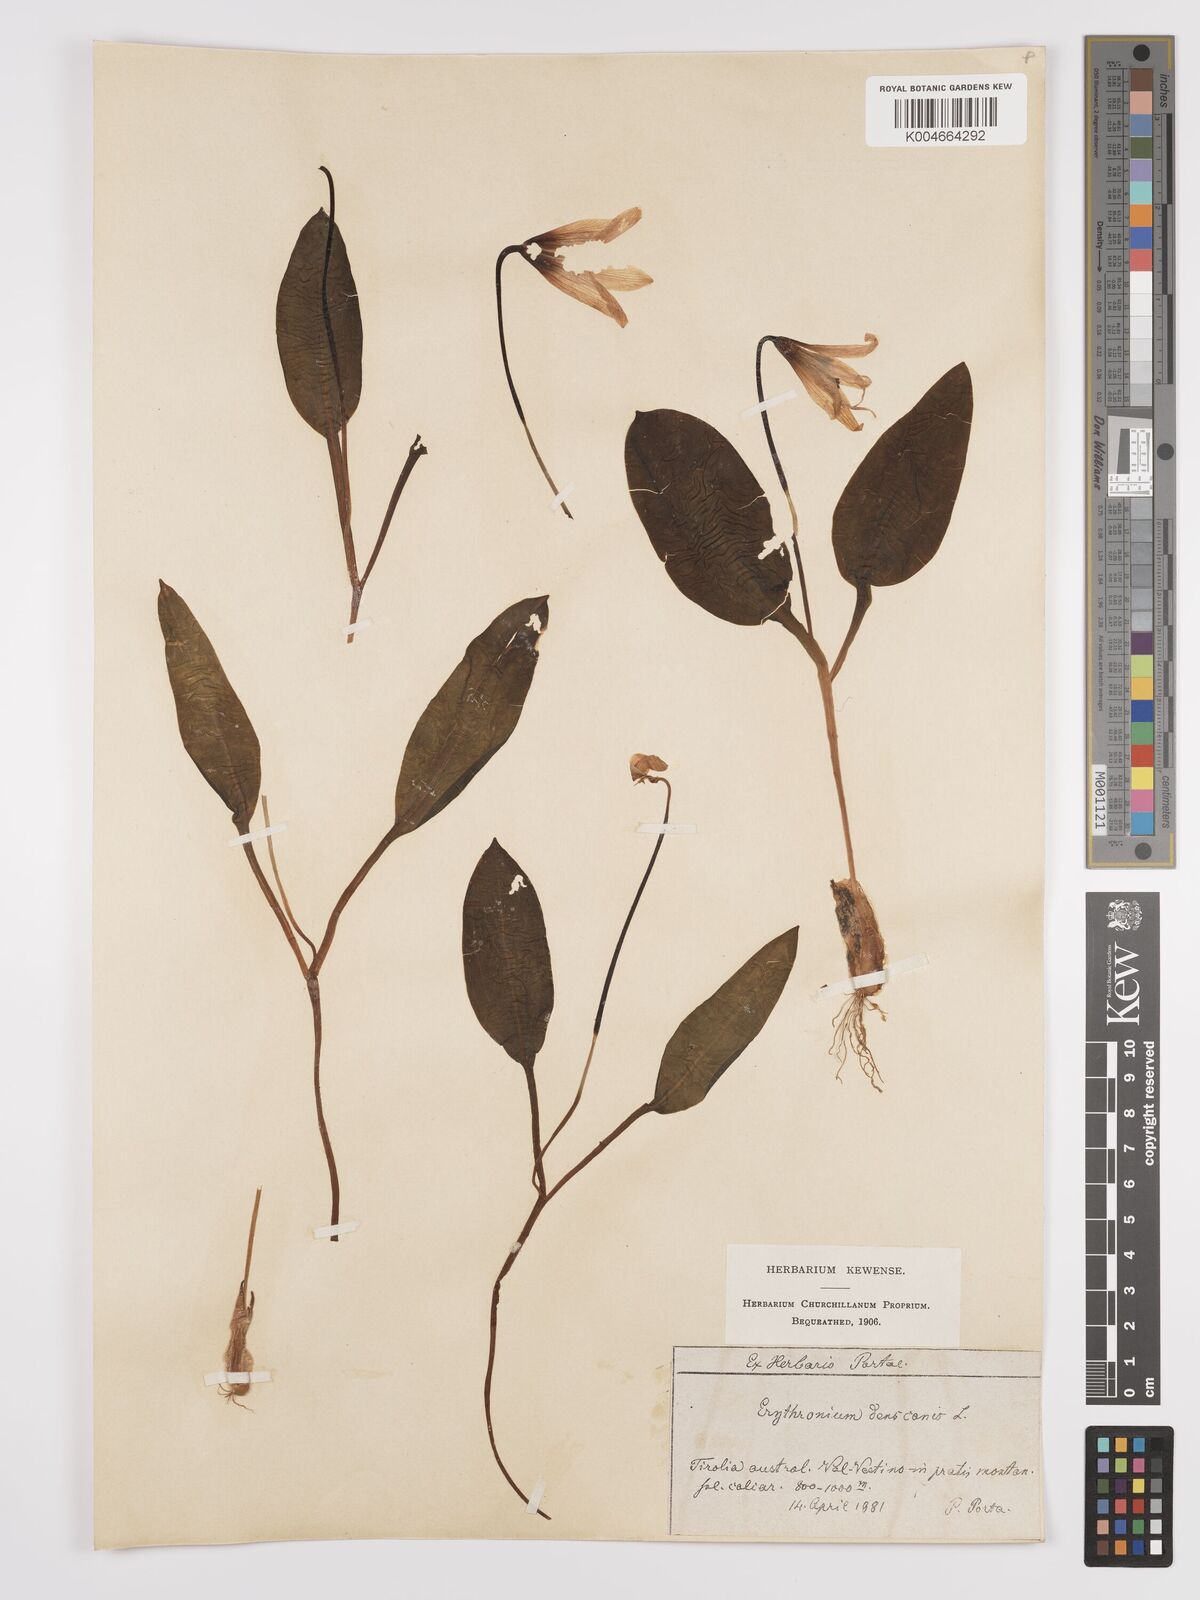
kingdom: Plantae
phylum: Tracheophyta
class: Liliopsida
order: Liliales
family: Liliaceae
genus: Erythronium
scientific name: Erythronium dens-canis
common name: Dog's-tooth-violet
